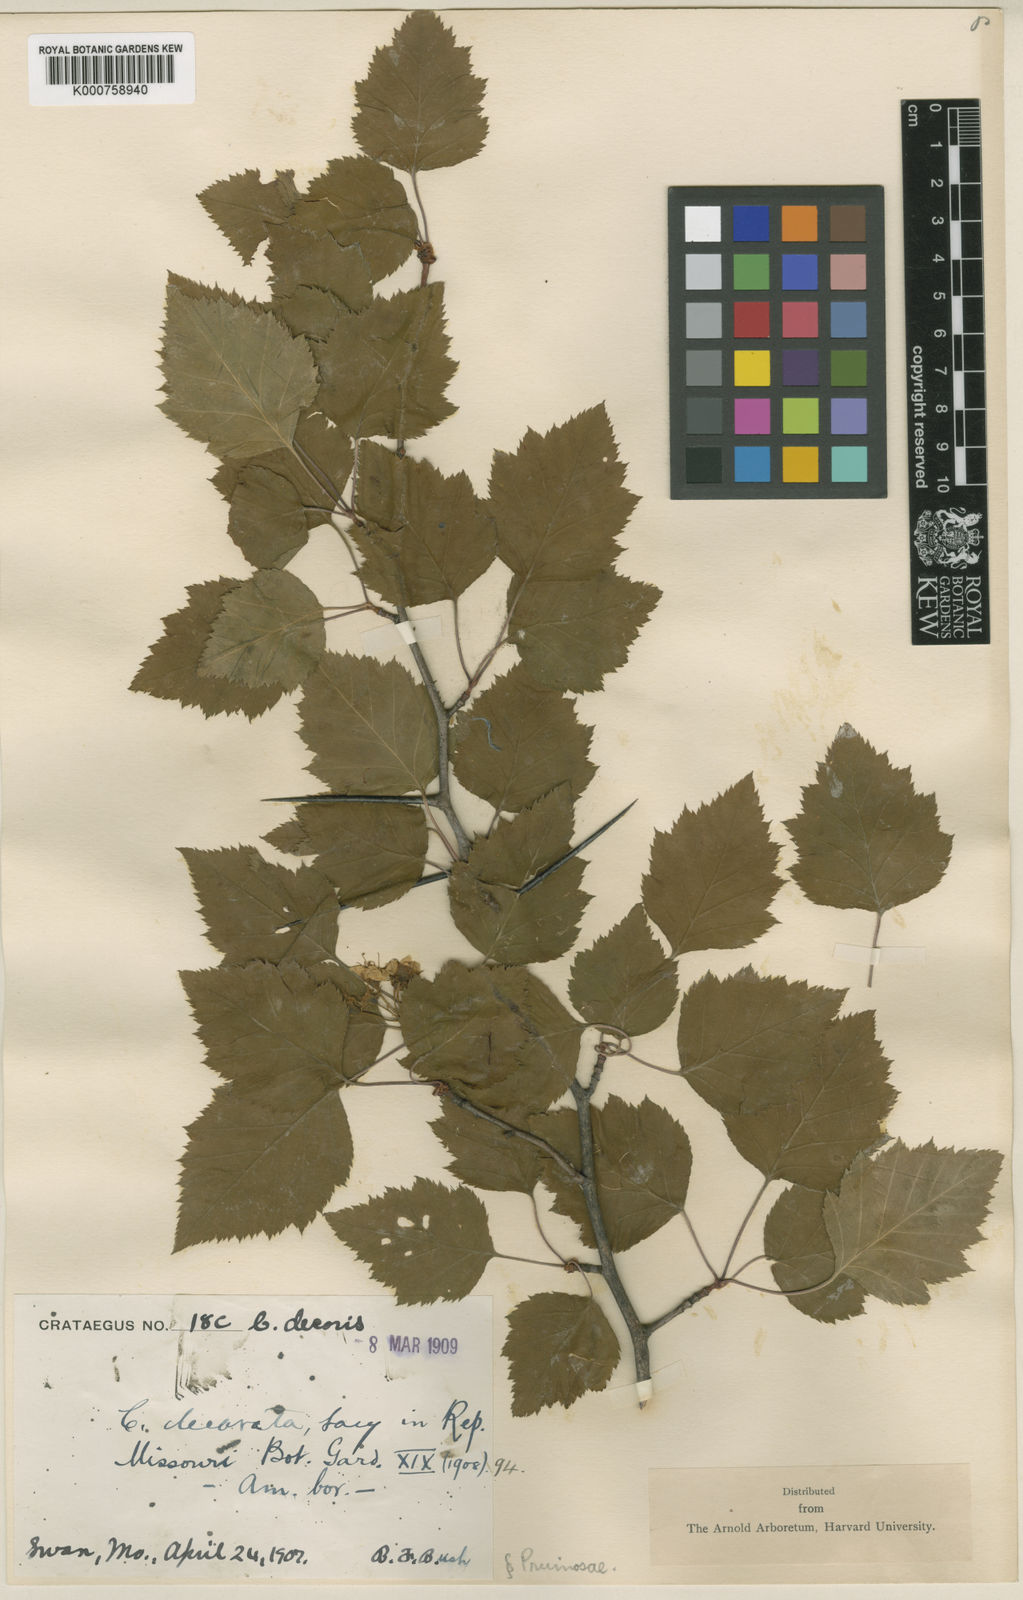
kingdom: Plantae
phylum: Tracheophyta
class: Magnoliopsida
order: Rosales
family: Rosaceae
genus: Crataegus
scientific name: Crataegus decorata
